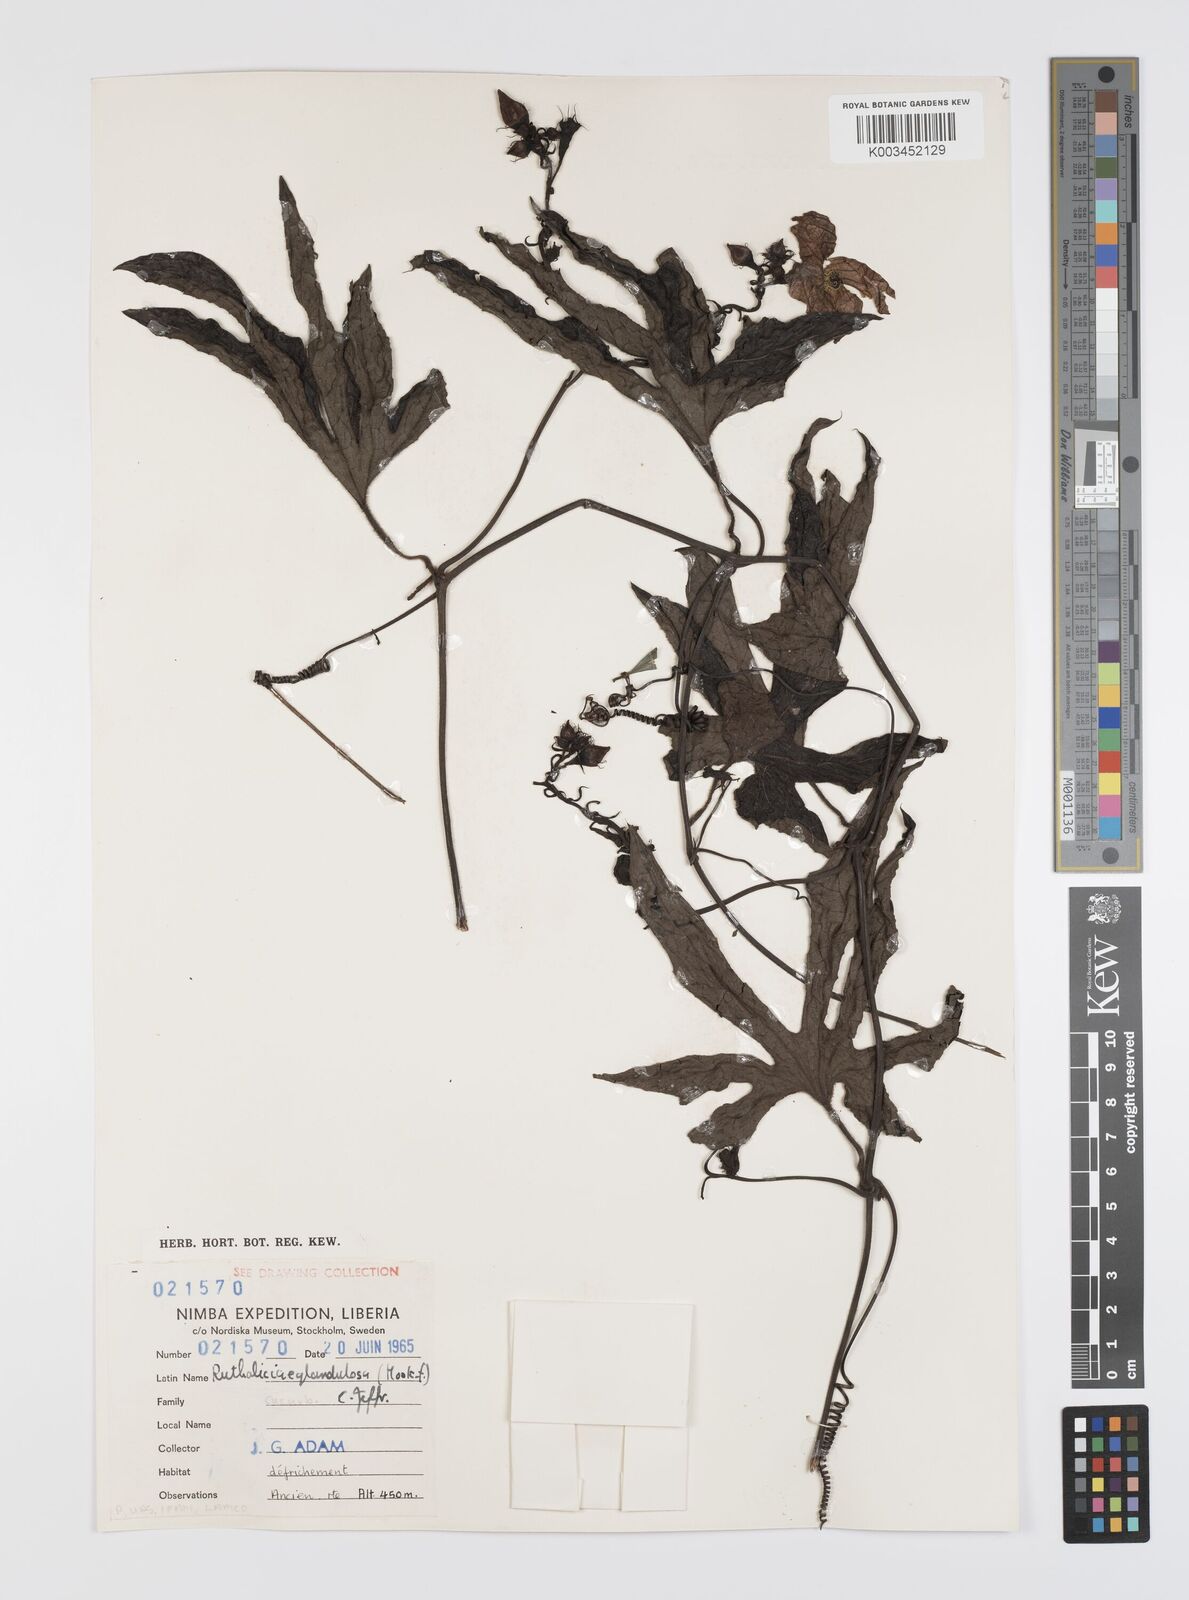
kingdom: Plantae
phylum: Tracheophyta
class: Magnoliopsida
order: Cucurbitales
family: Cucurbitaceae
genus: Ruthalicia
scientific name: Ruthalicia eglandulosa
